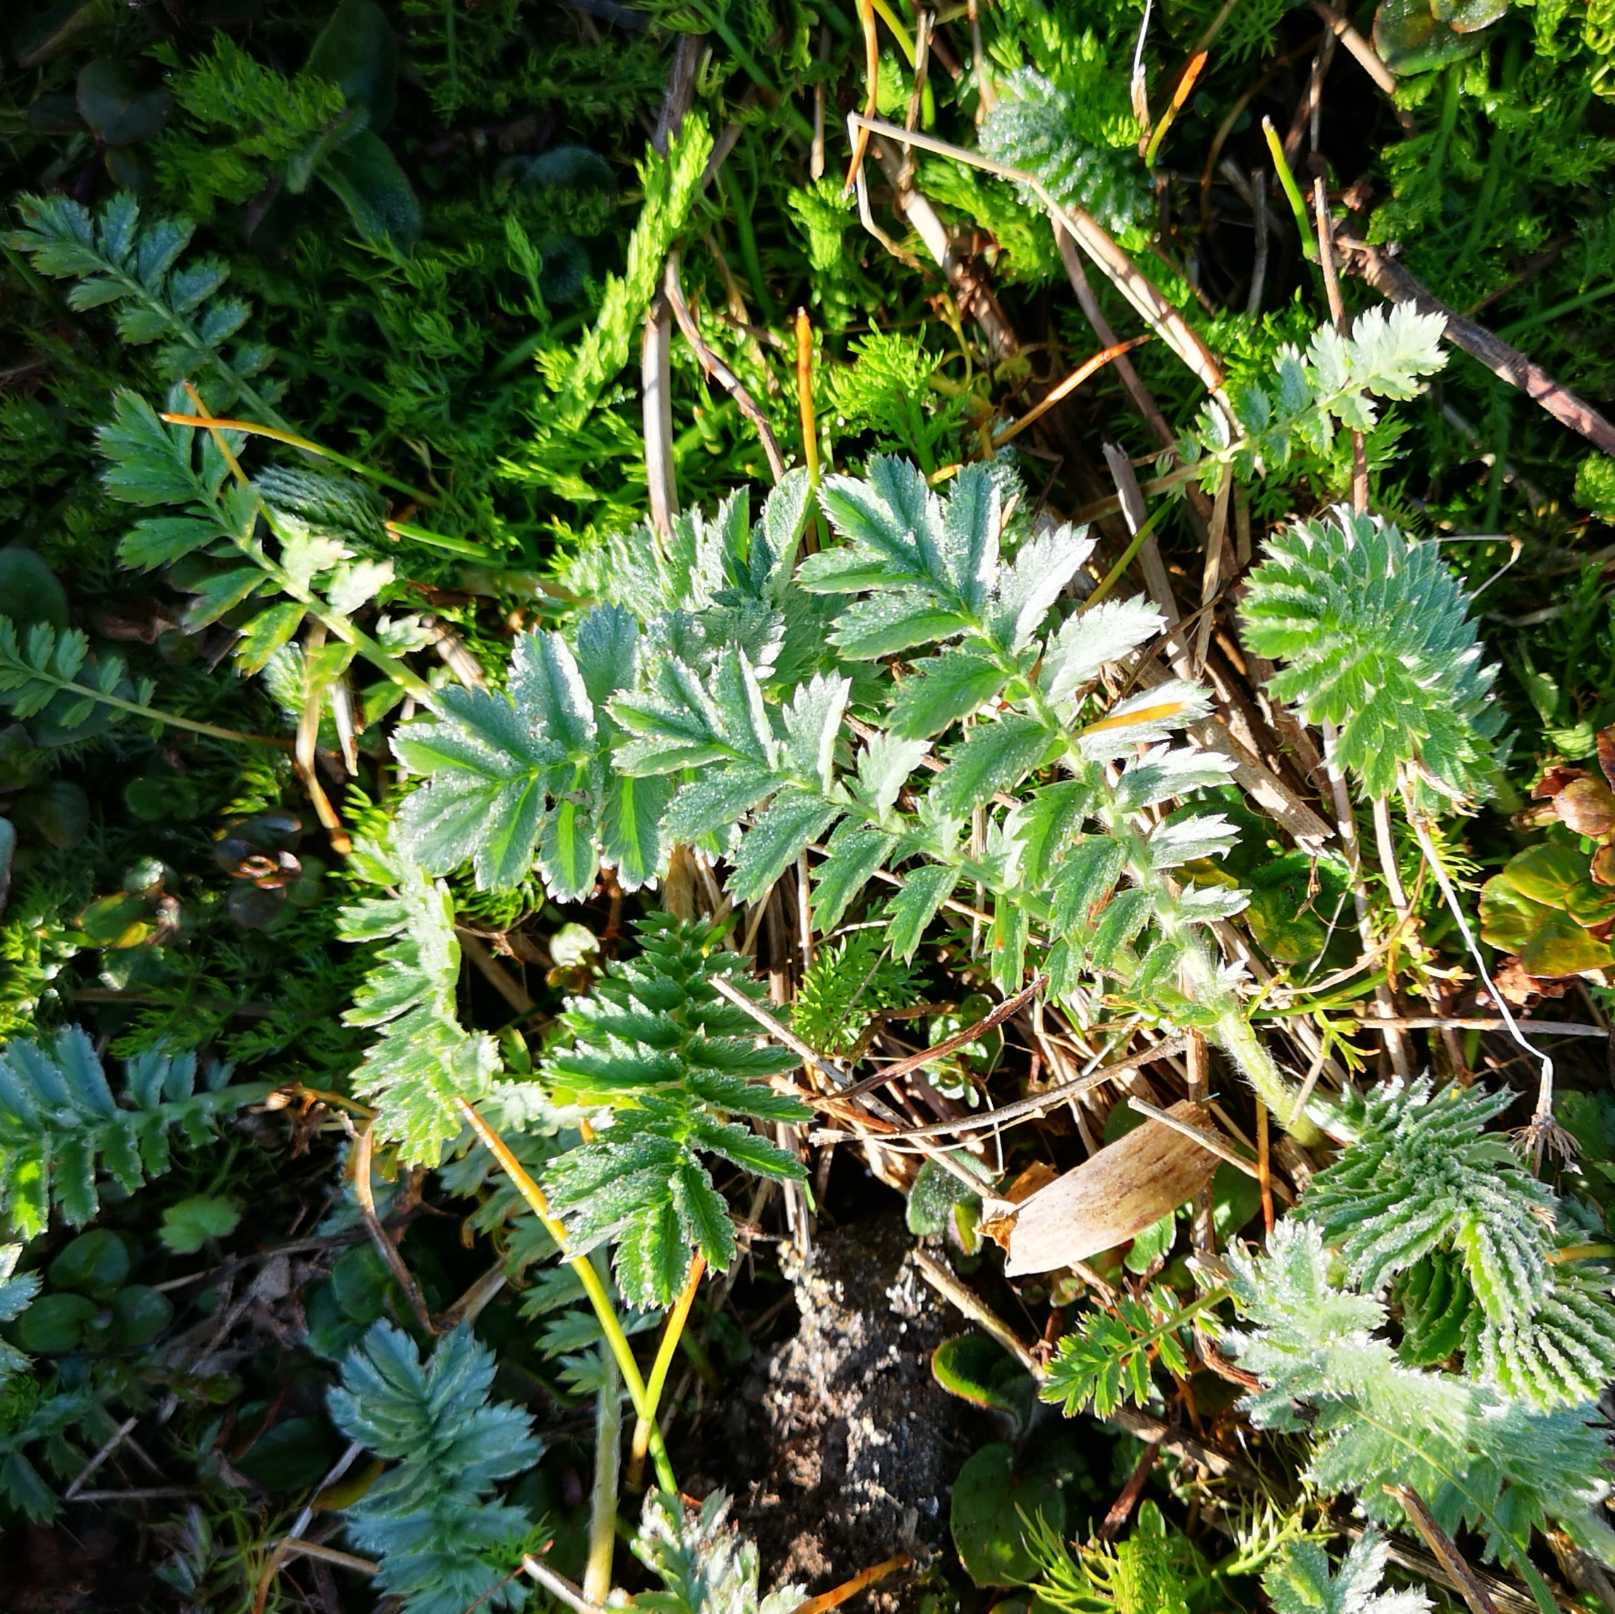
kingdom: Plantae
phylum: Tracheophyta
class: Magnoliopsida
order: Rosales
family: Rosaceae
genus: Argentina
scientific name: Argentina anserina
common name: Gåsepotentil
